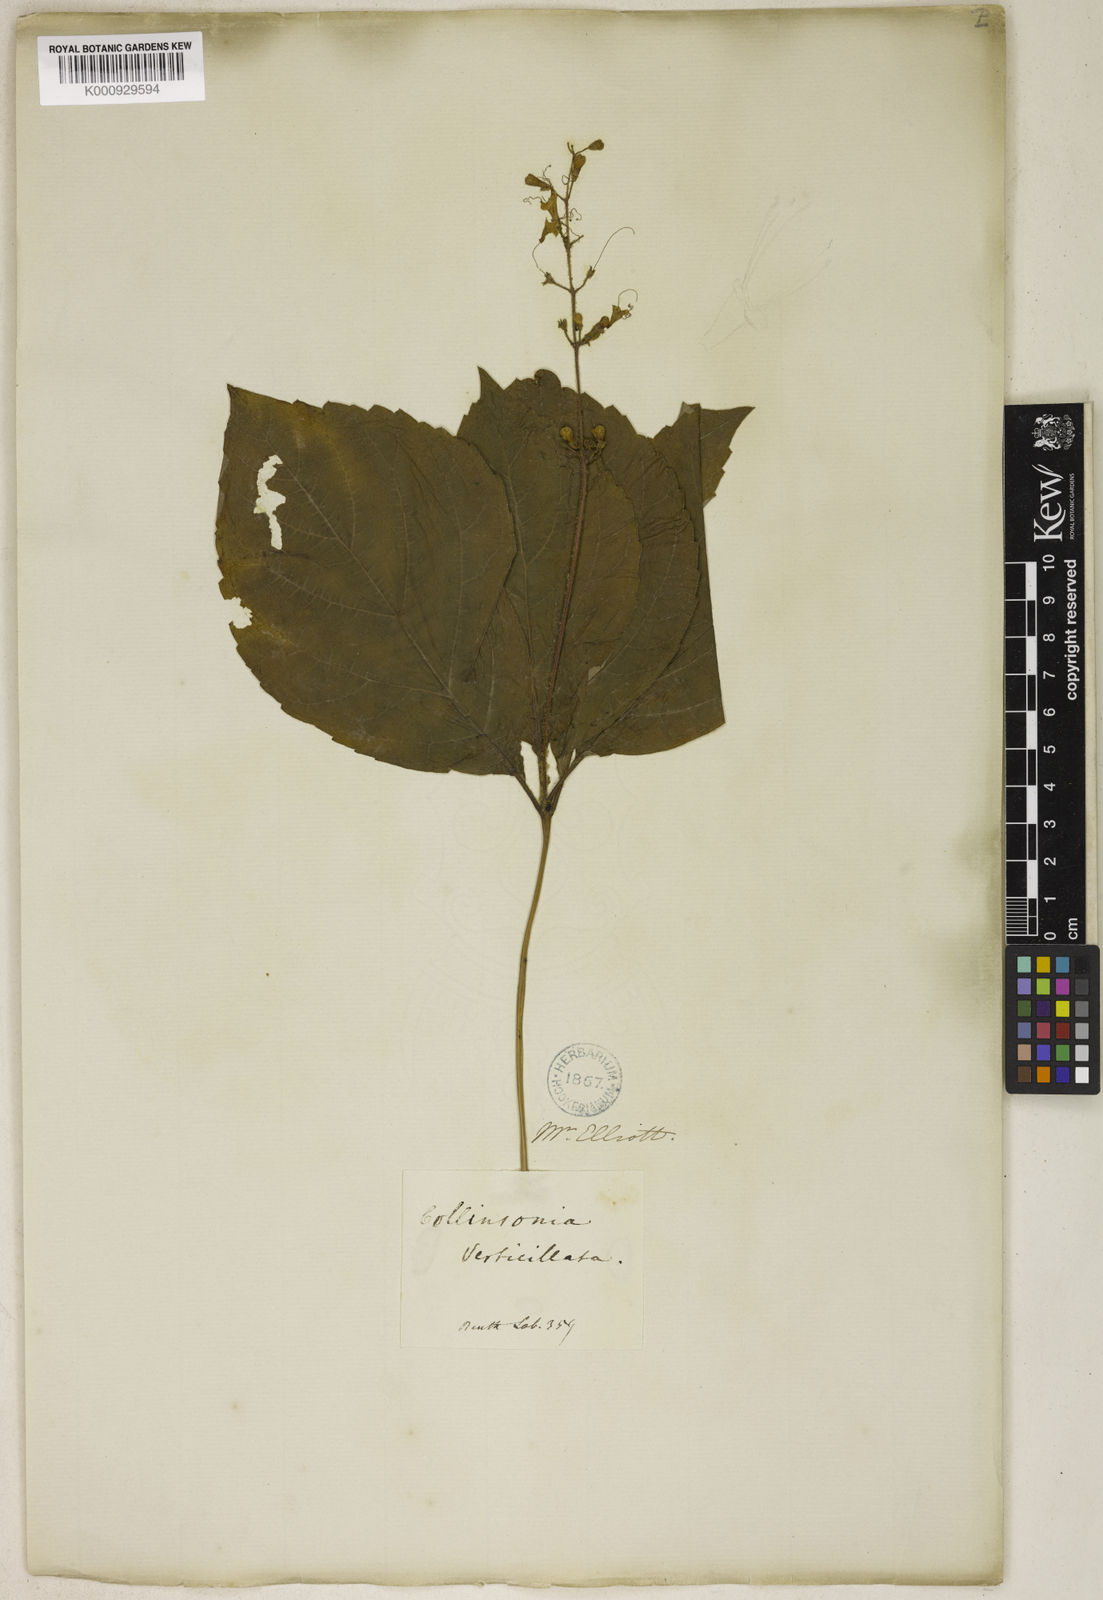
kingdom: Plantae
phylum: Tracheophyta
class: Magnoliopsida
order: Lamiales
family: Lamiaceae
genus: Collinsonia
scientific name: Collinsonia verticillata
